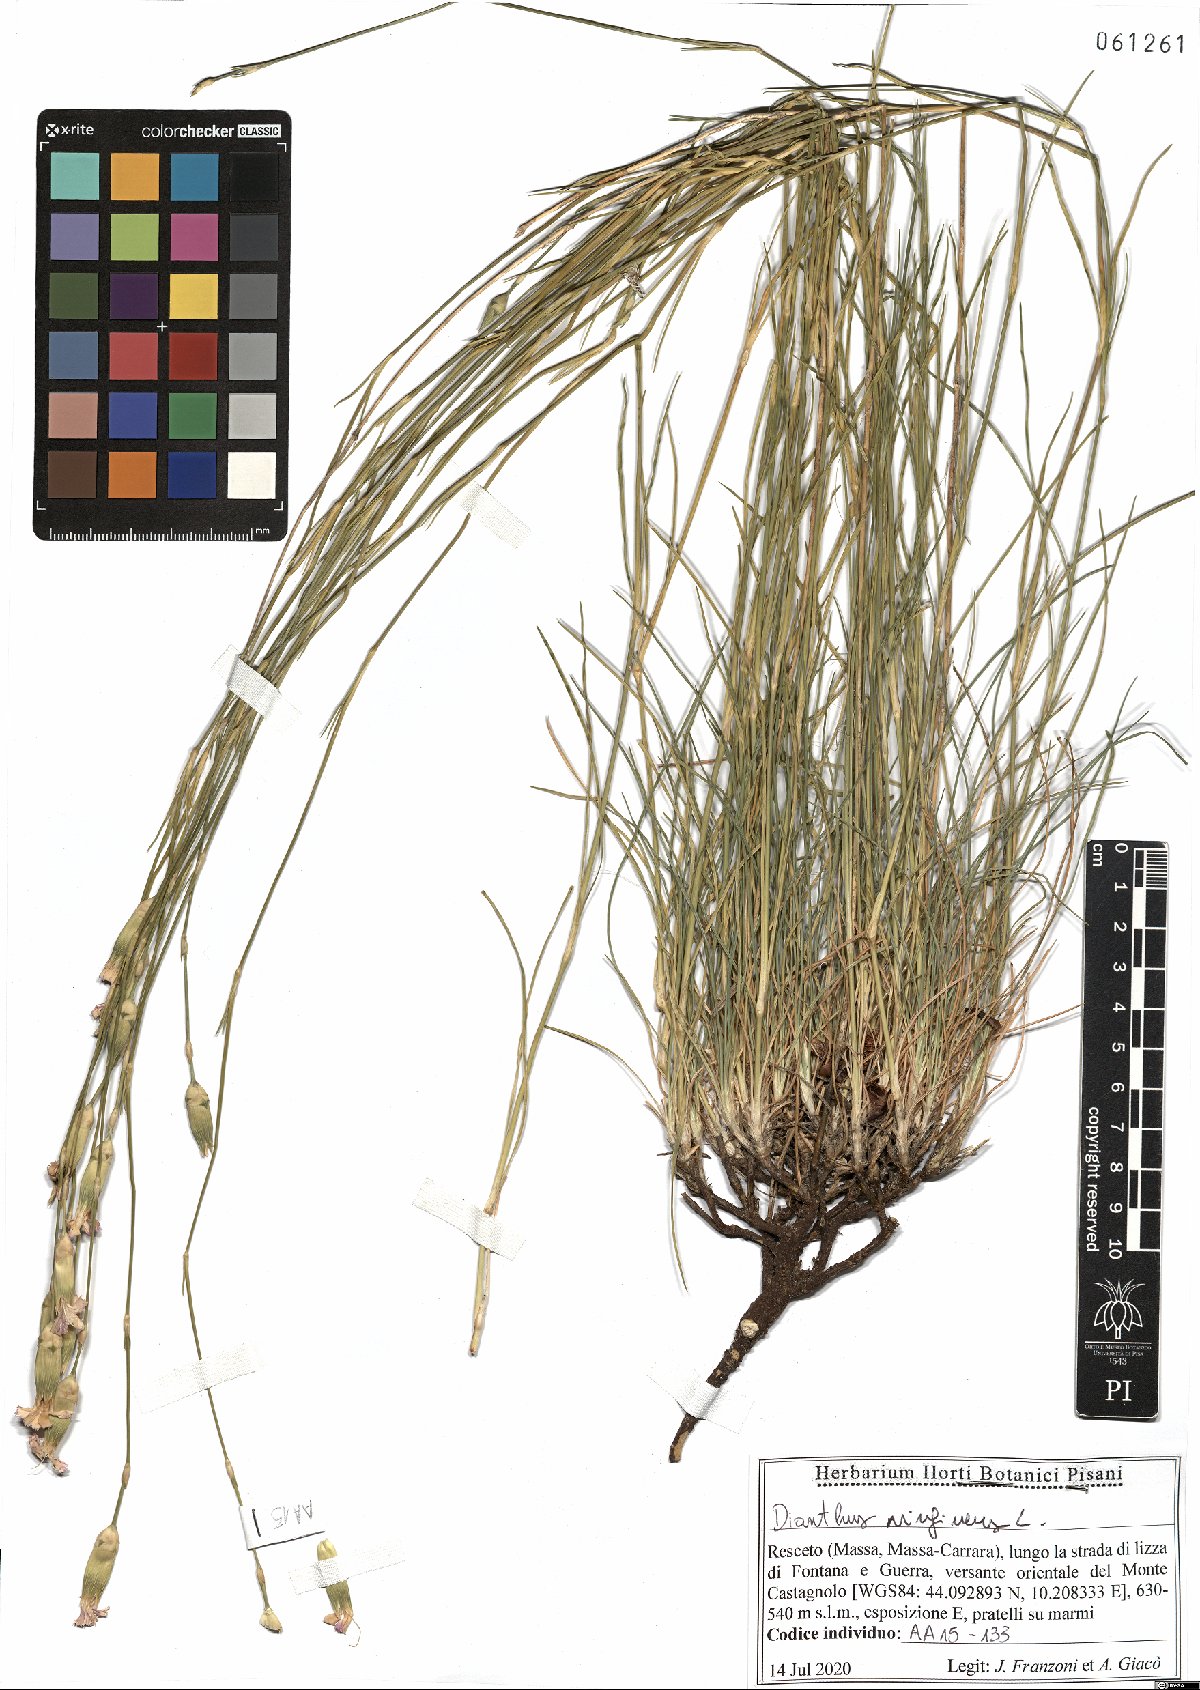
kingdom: Plantae
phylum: Tracheophyta
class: Magnoliopsida
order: Caryophyllales
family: Caryophyllaceae
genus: Dianthus
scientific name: Dianthus virgineus
